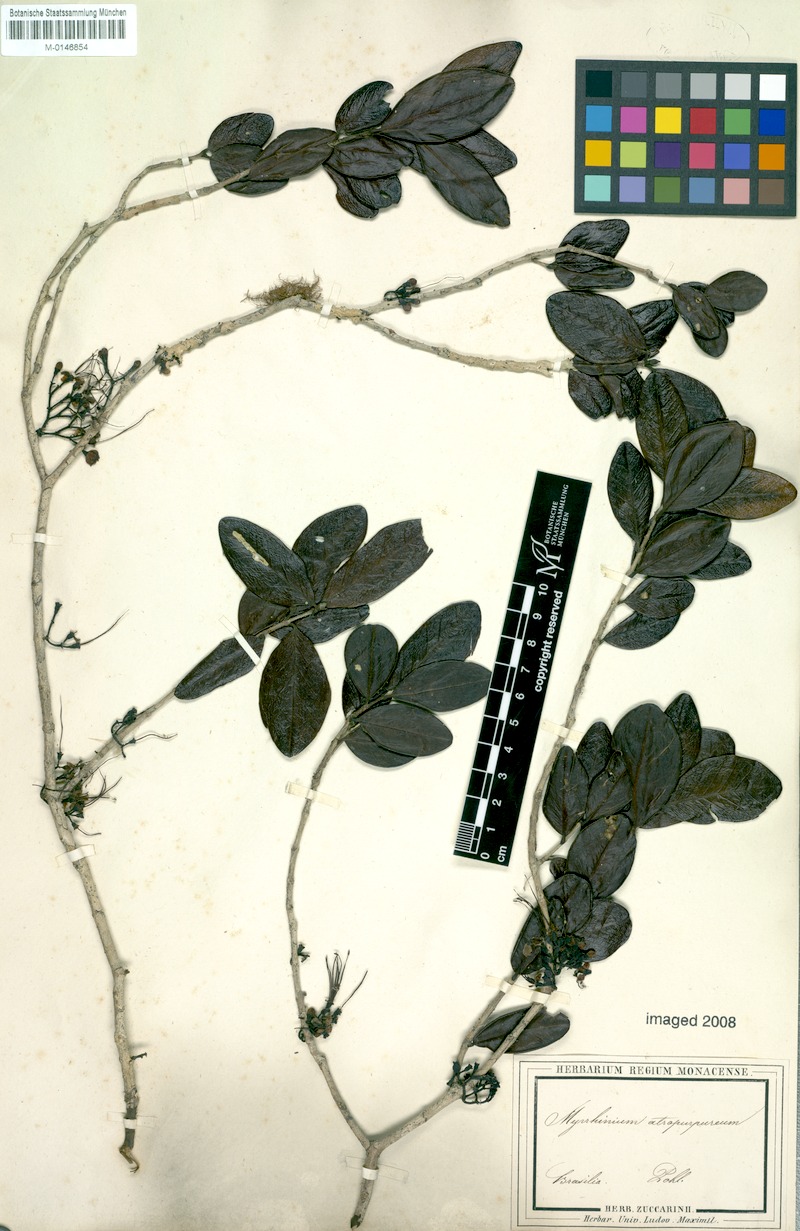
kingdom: Plantae
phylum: Tracheophyta
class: Magnoliopsida
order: Myrtales
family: Myrtaceae
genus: Myrrhinium
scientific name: Myrrhinium atropurpureum
